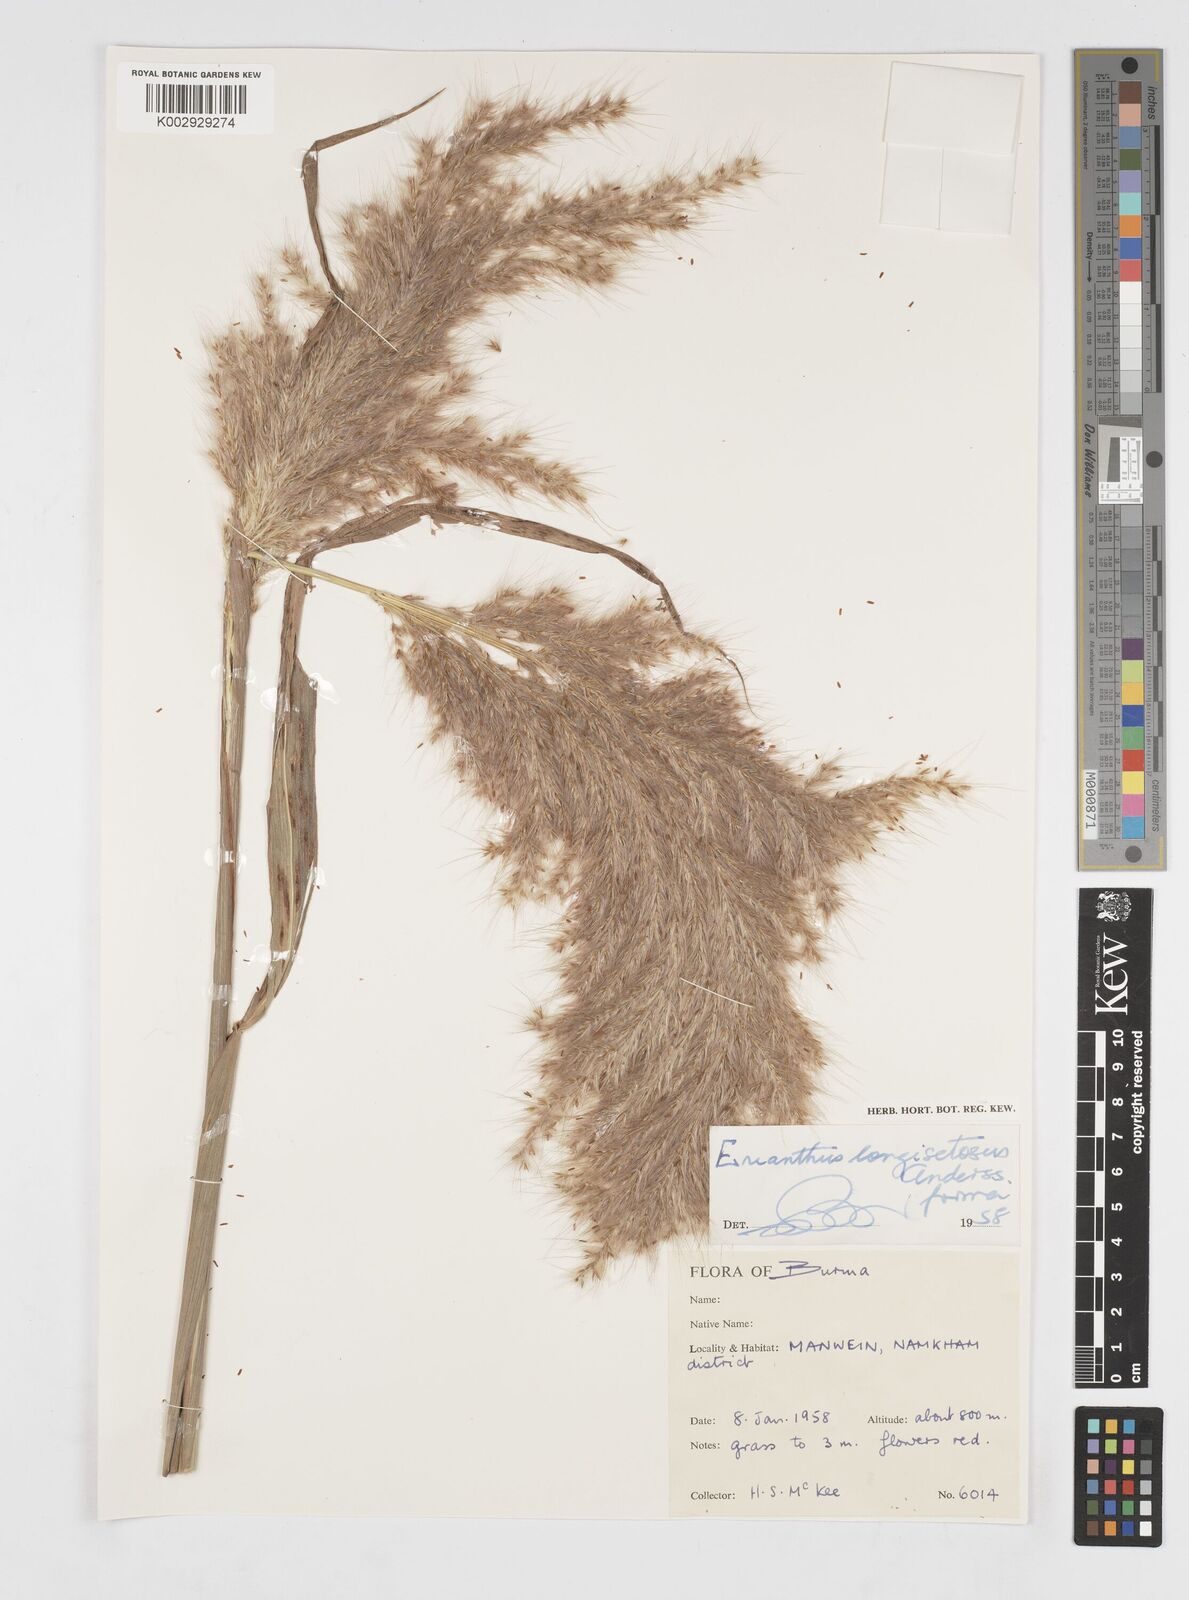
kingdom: Plantae
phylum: Tracheophyta
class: Liliopsida
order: Poales
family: Poaceae
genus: Saccharum
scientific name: Saccharum longesetosum
